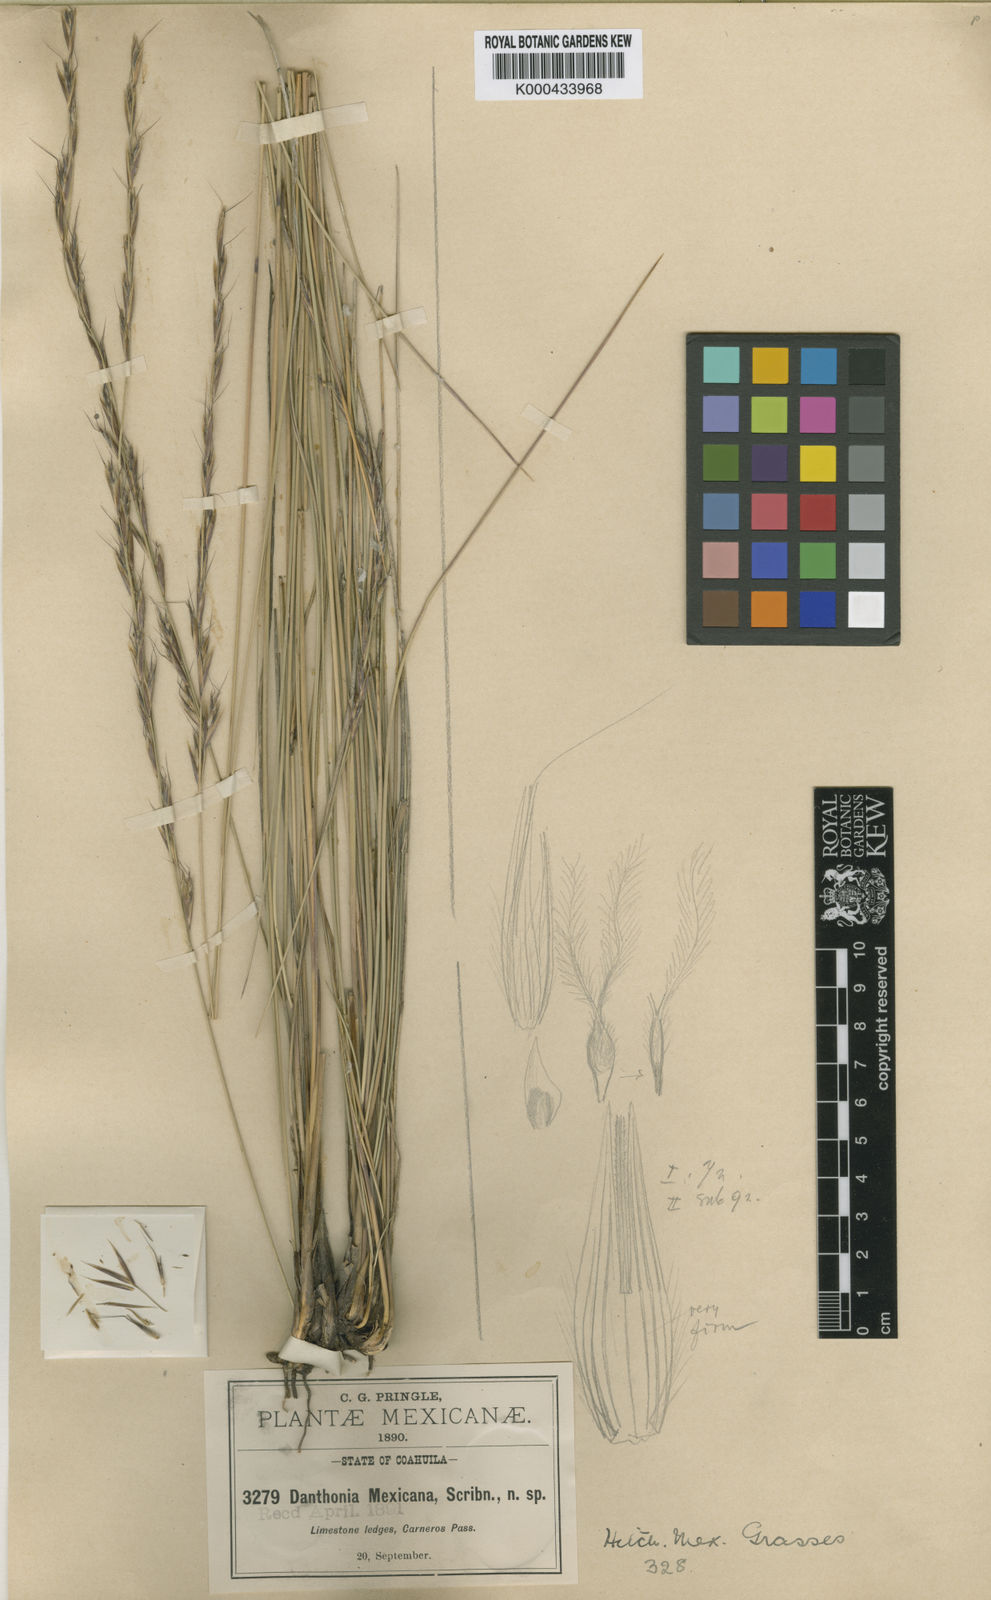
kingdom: Plantae
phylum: Tracheophyta
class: Liliopsida
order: Poales
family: Poaceae
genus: Metcalfia
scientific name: Metcalfia mexicana
